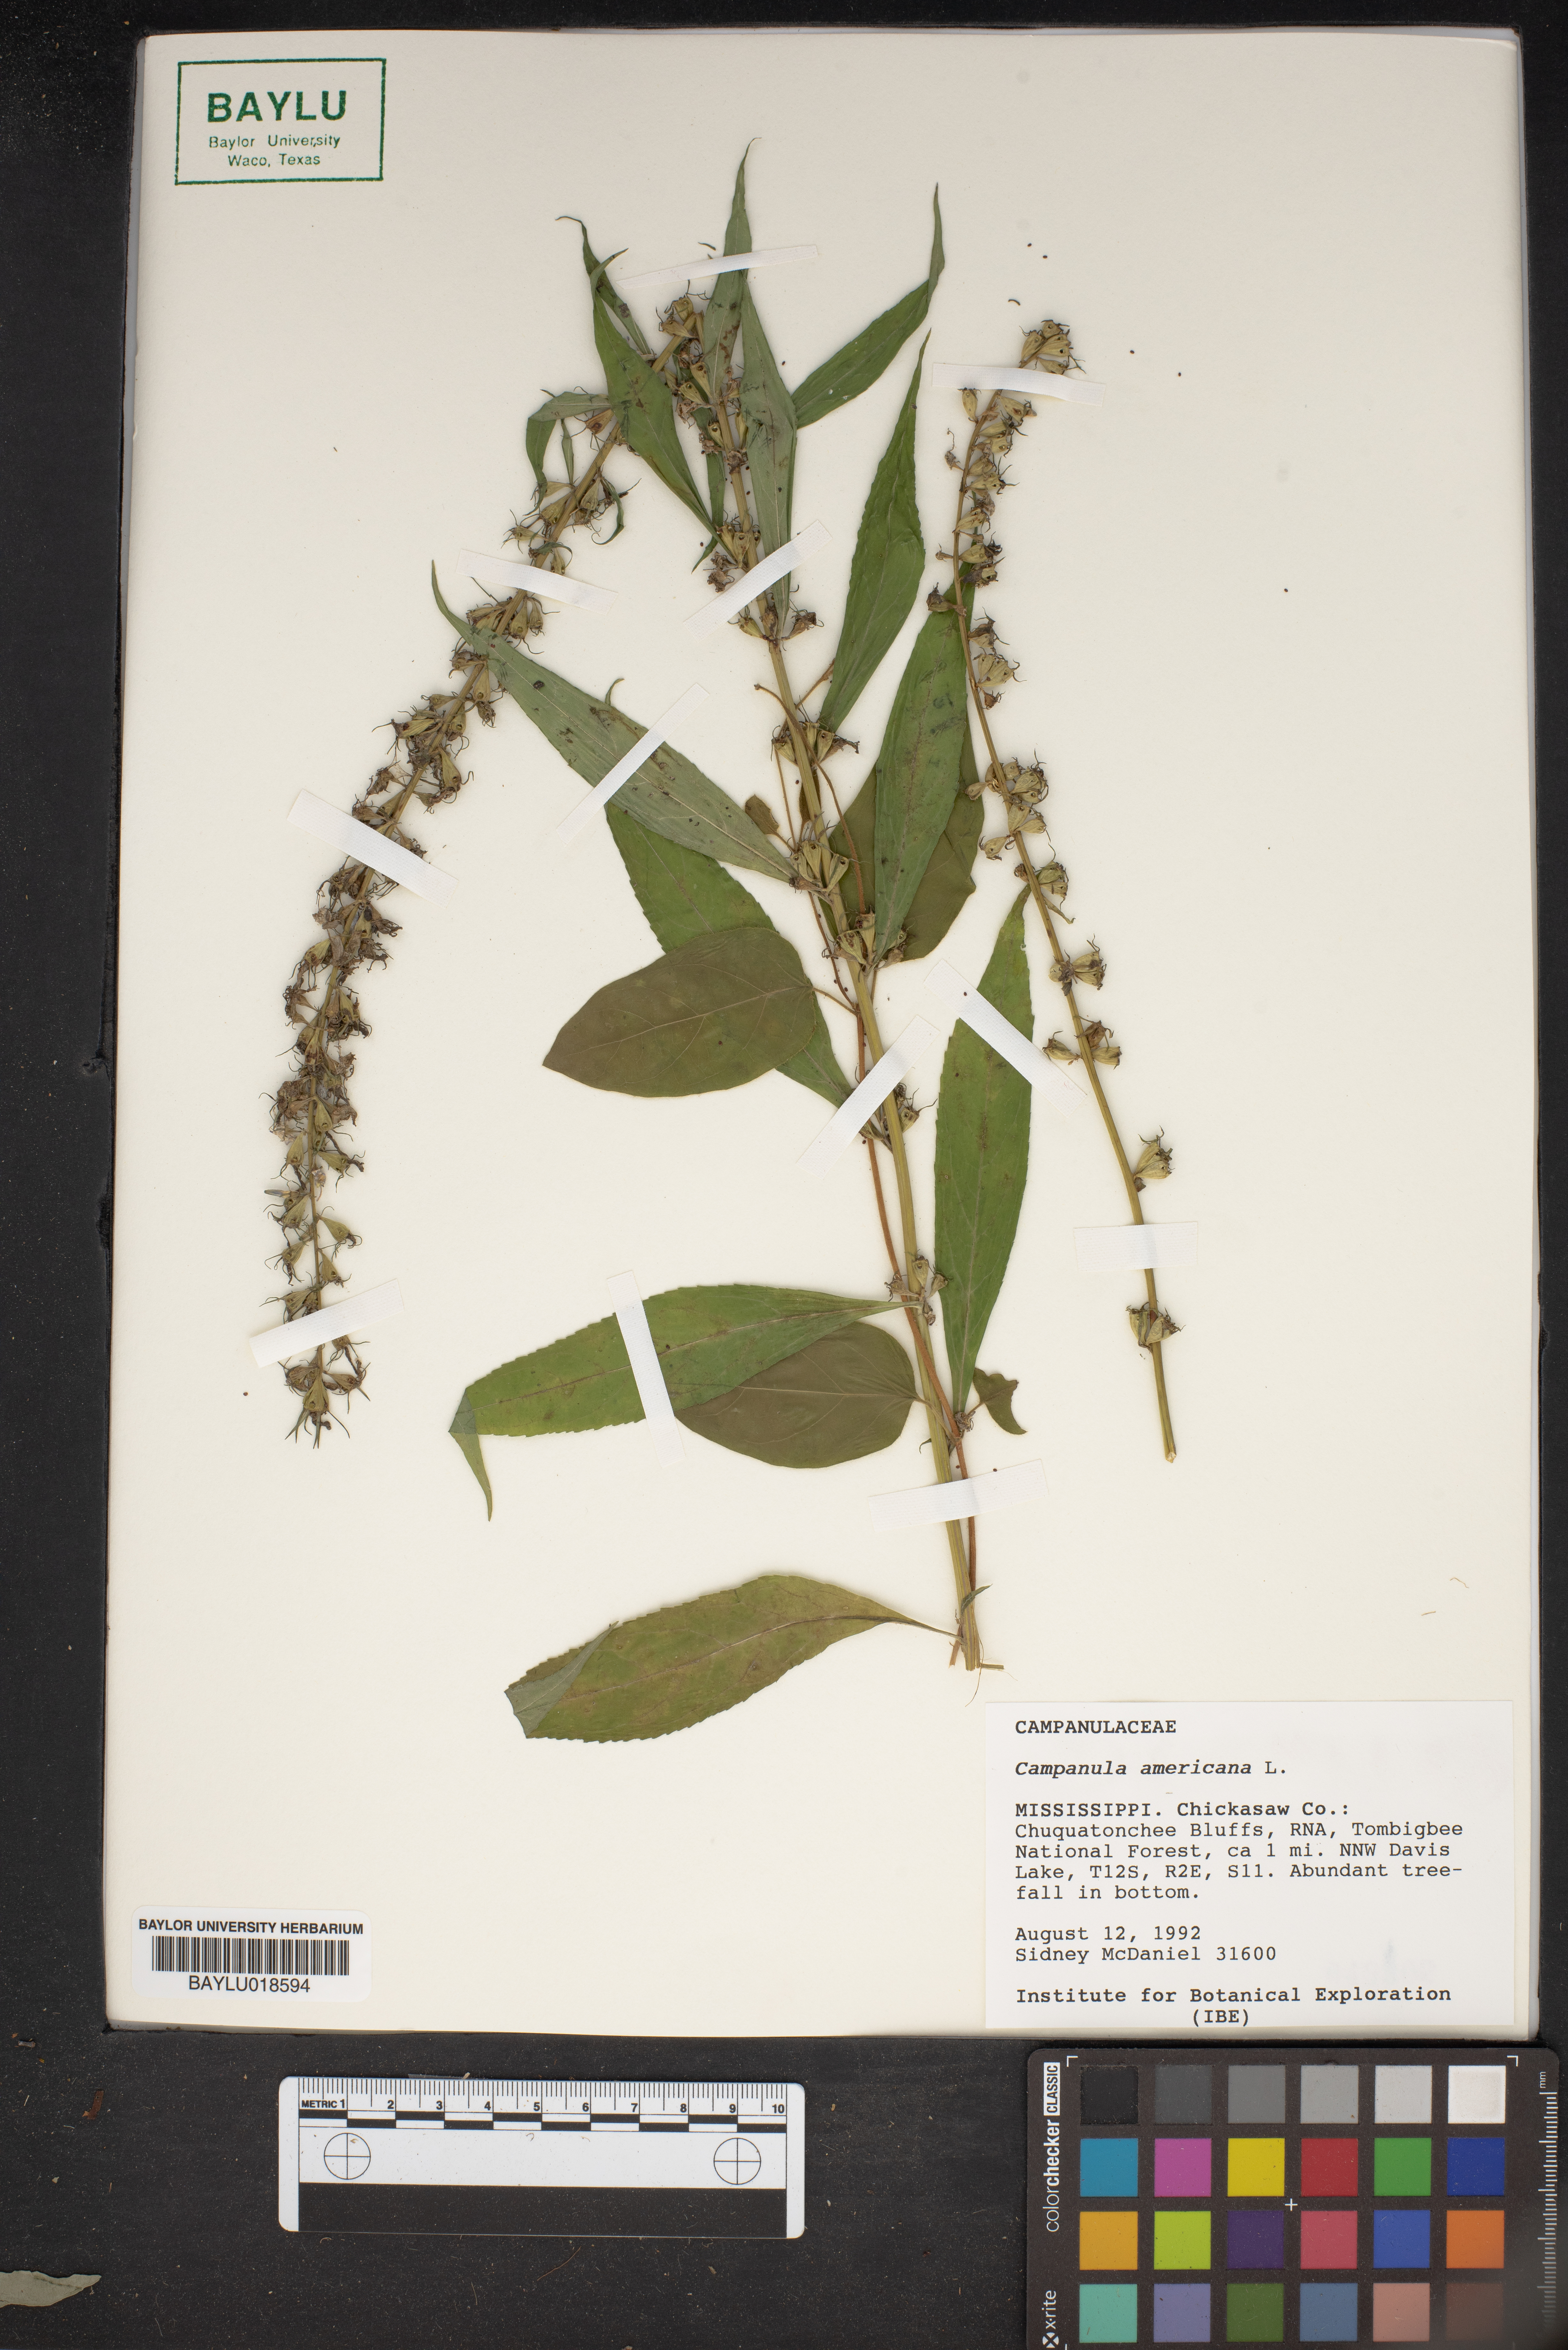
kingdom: Plantae
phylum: Tracheophyta
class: Magnoliopsida
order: Asterales
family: Campanulaceae
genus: Campanula
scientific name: Campanula americana
